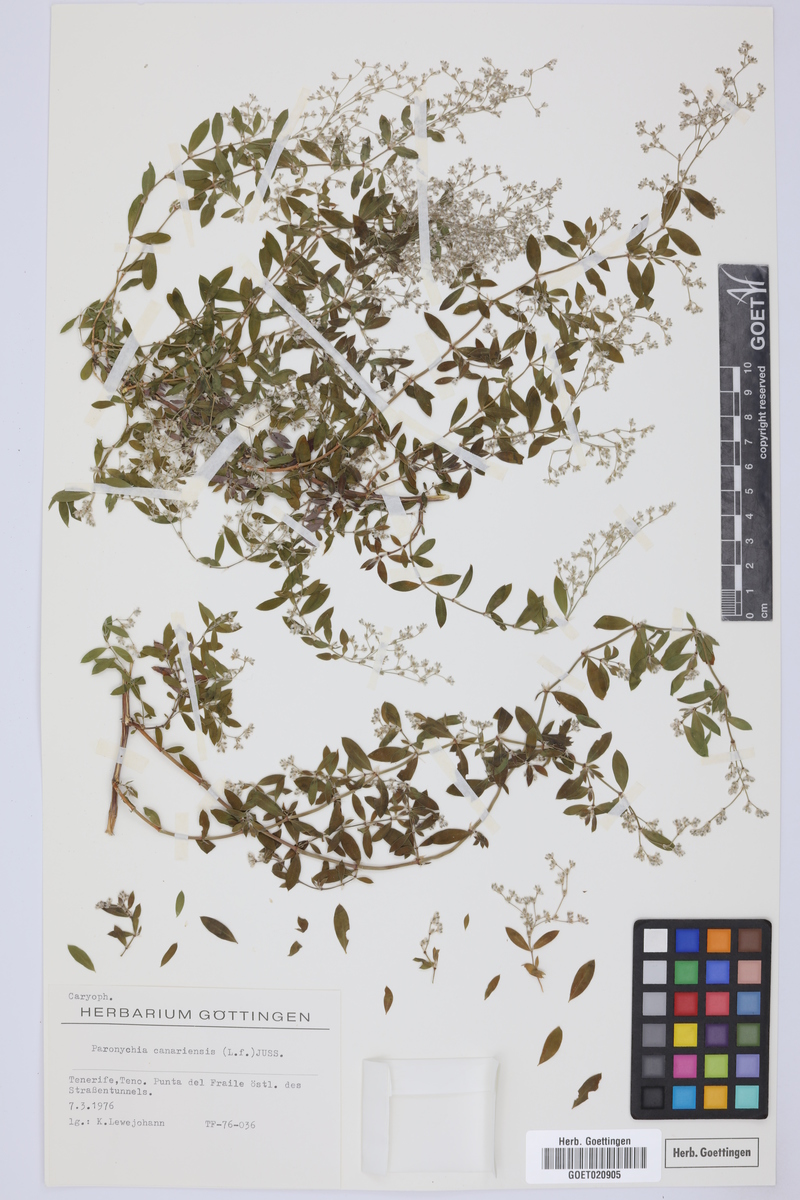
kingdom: Plantae
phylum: Tracheophyta
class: Magnoliopsida
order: Caryophyllales
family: Caryophyllaceae
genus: Paronychia
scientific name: Paronychia canariensis
